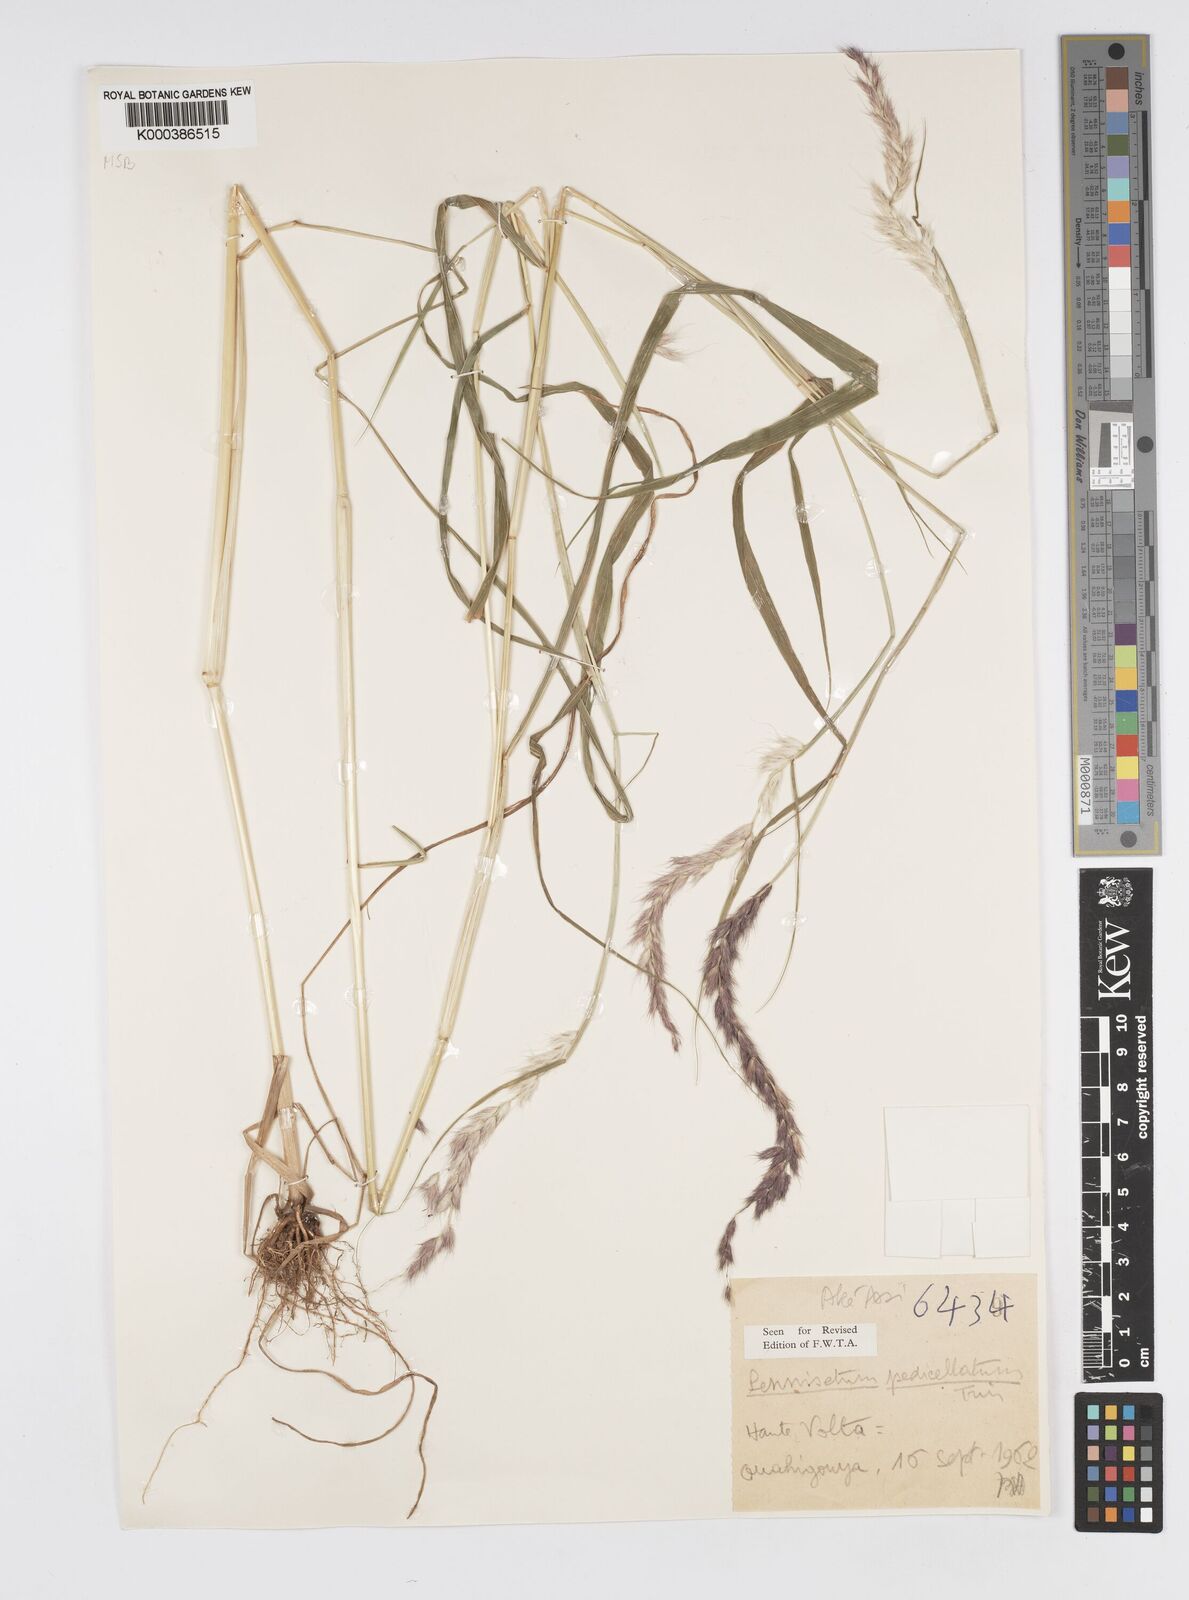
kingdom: Plantae
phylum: Tracheophyta
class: Liliopsida
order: Poales
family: Poaceae
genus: Cenchrus
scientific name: Cenchrus pedicellatus
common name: Hairy fountain grass
